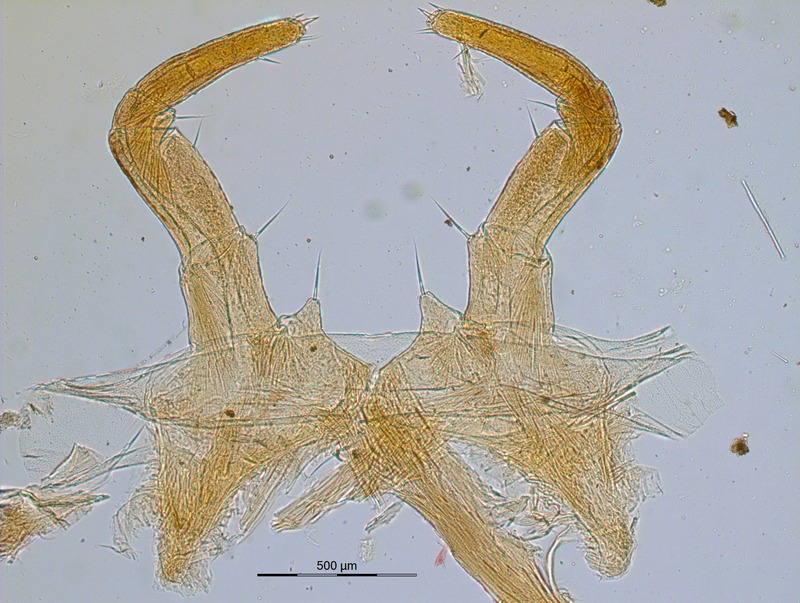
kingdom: Animalia
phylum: Arthropoda
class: Diplopoda
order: Glomerida
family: Glomeridae
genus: Onychoglomeris
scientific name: Onychoglomeris fagi
